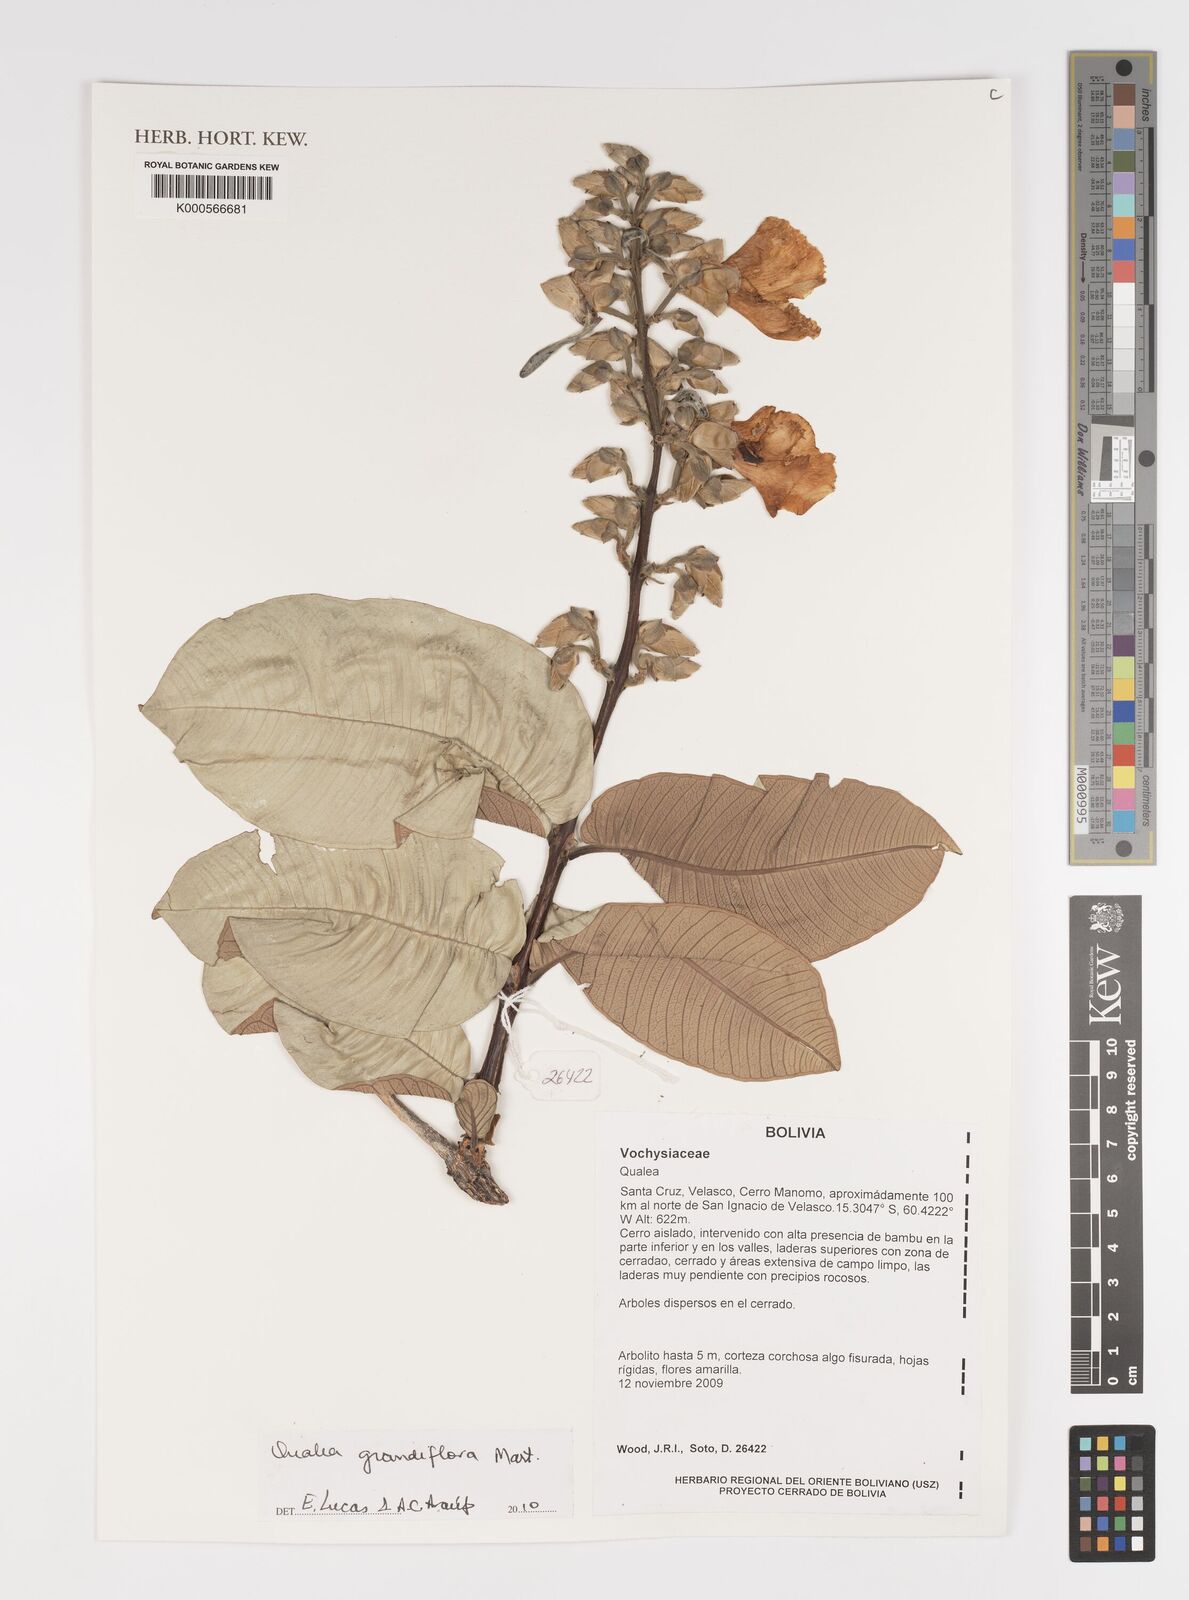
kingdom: Plantae
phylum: Tracheophyta
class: Magnoliopsida
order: Myrtales
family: Vochysiaceae
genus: Qualea
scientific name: Qualea grandiflora
